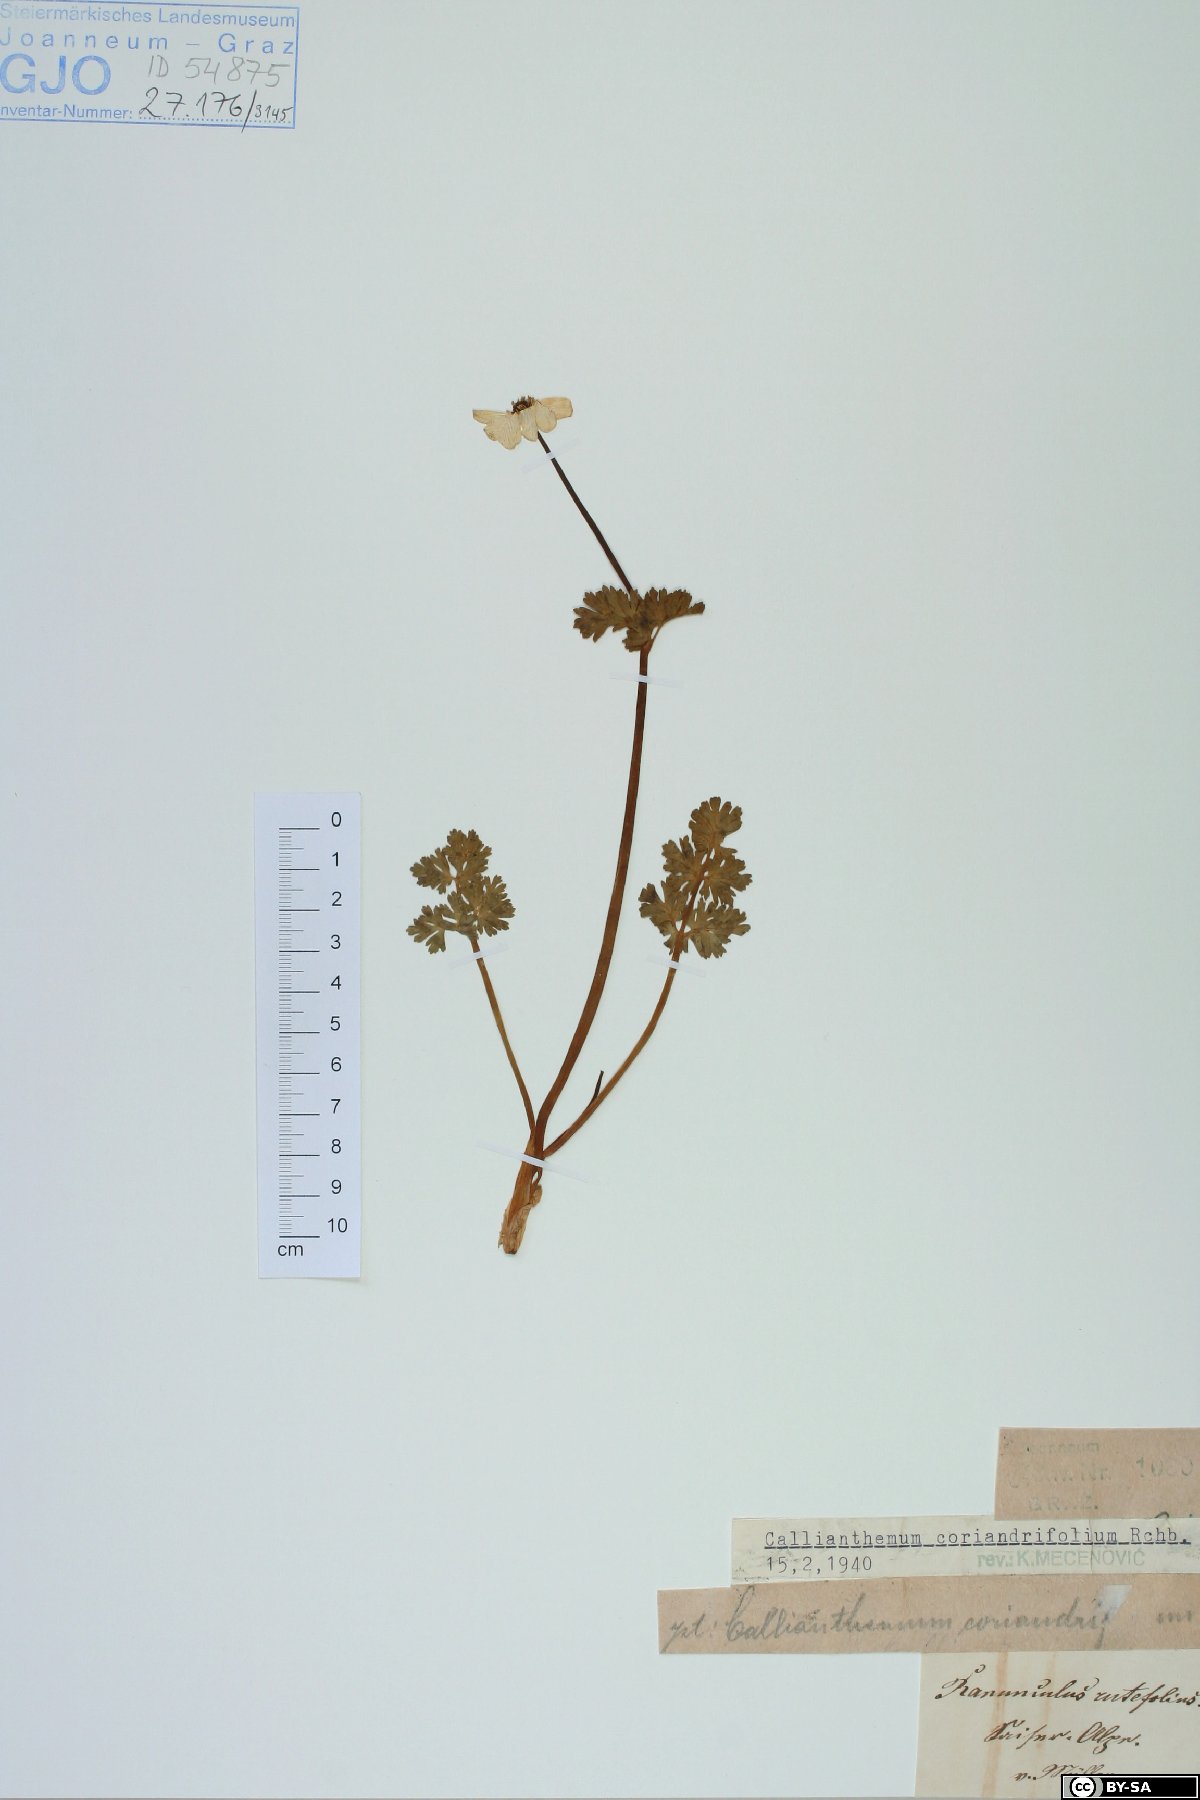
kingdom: Plantae
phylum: Tracheophyta
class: Magnoliopsida
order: Ranunculales
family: Ranunculaceae
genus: Callianthemum
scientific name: Callianthemum coriandrifolium
